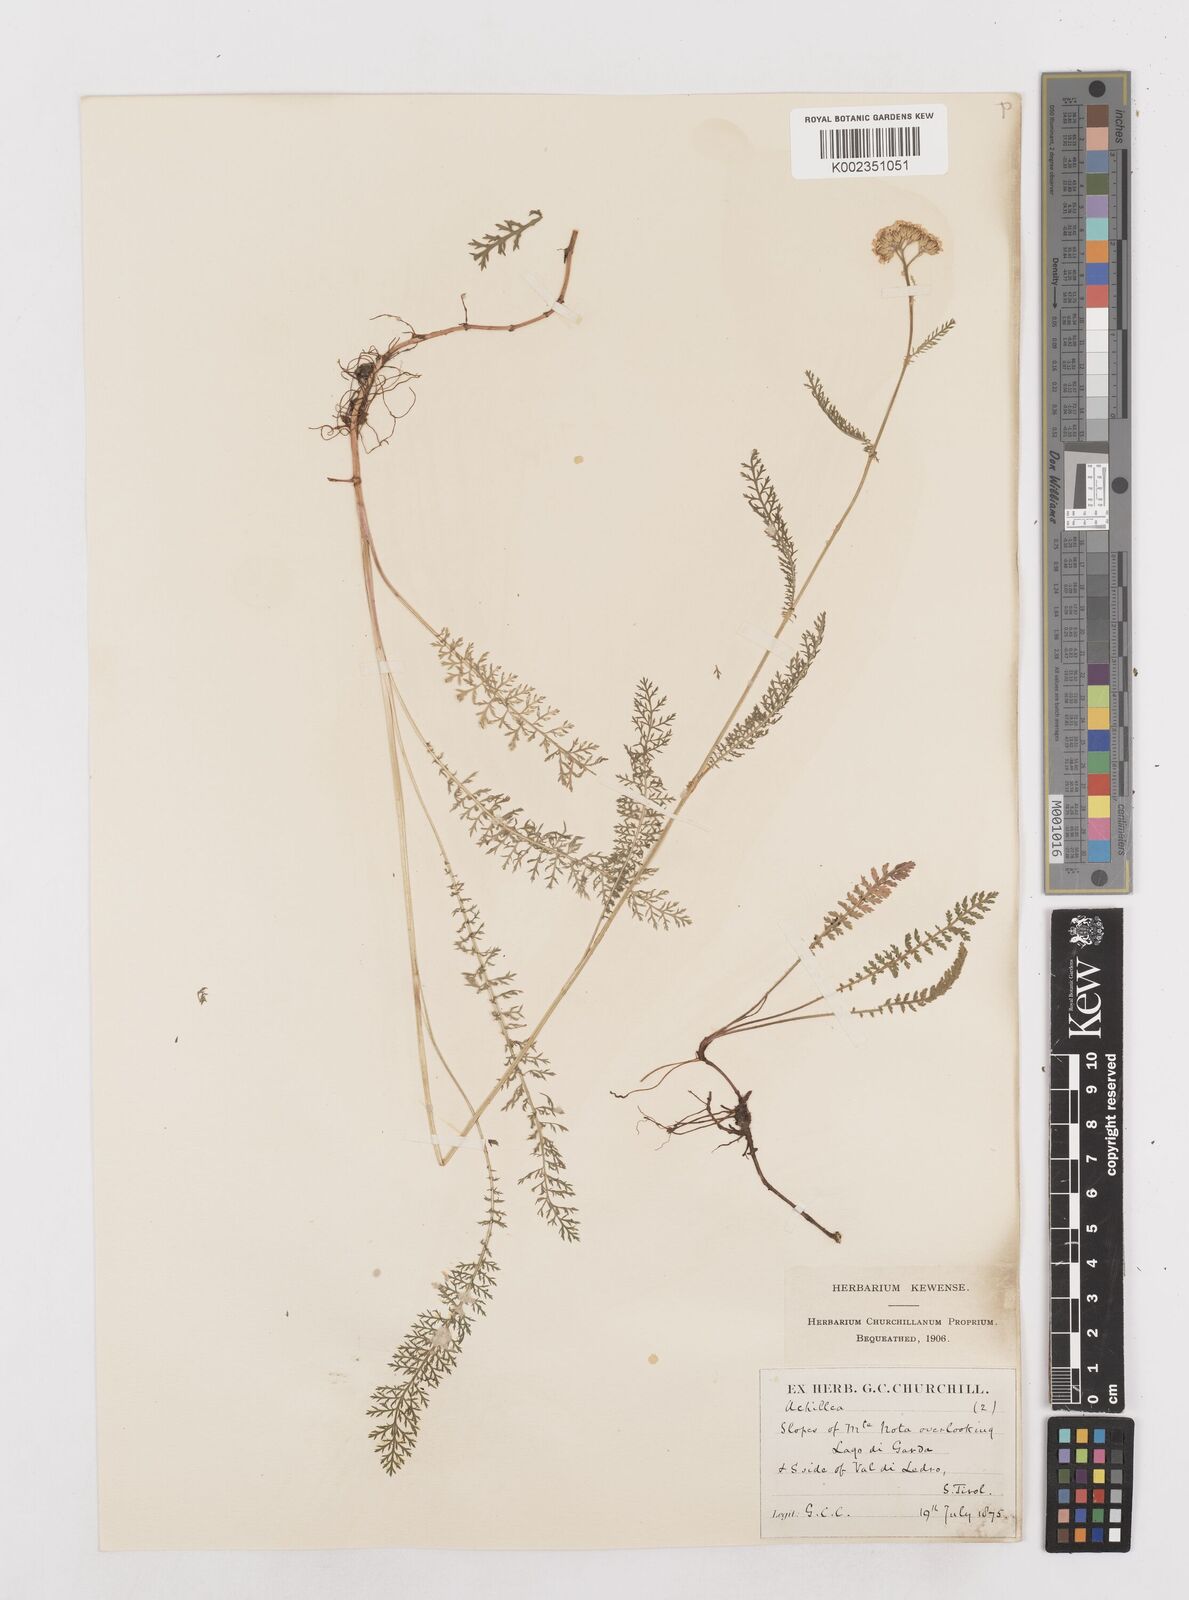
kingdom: Plantae
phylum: Tracheophyta
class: Magnoliopsida
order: Asterales
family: Asteraceae
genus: Achillea
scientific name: Achillea millefolium
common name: Yarrow
